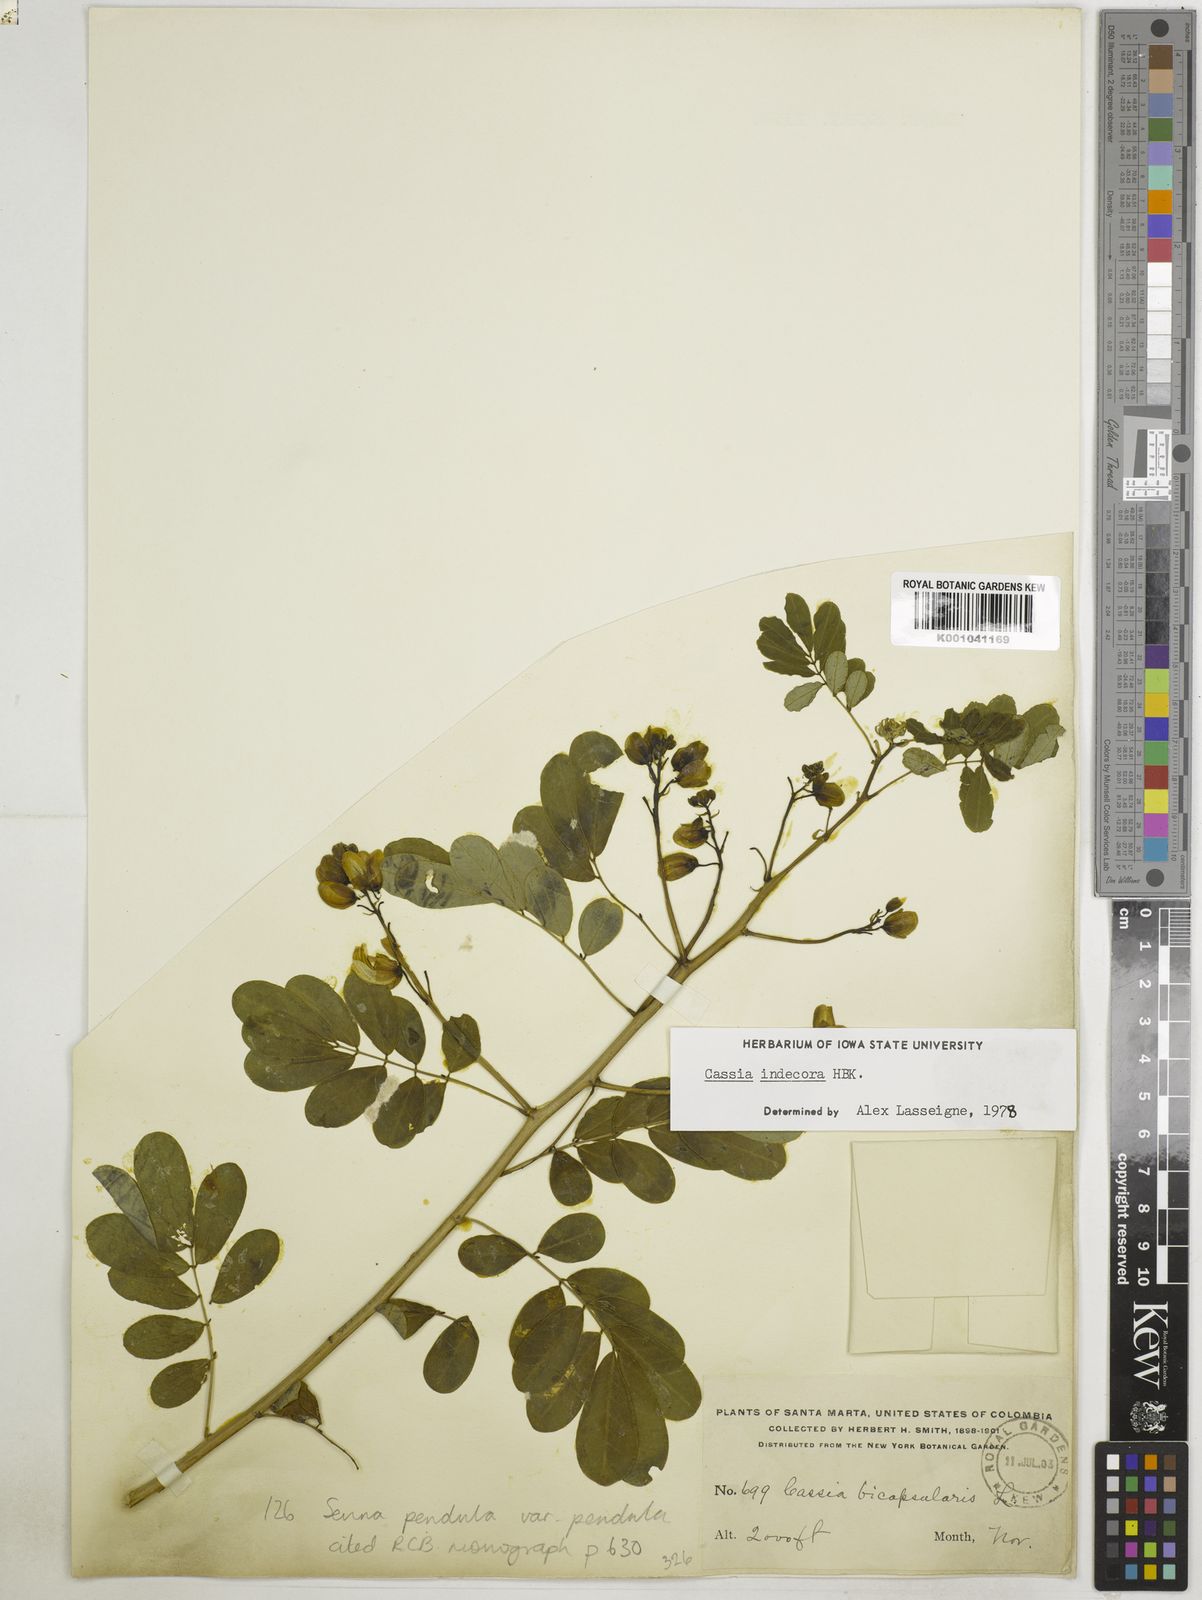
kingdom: Plantae
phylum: Tracheophyta
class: Magnoliopsida
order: Fabales
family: Fabaceae
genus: Senna
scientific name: Senna pendula
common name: Easter cassia
